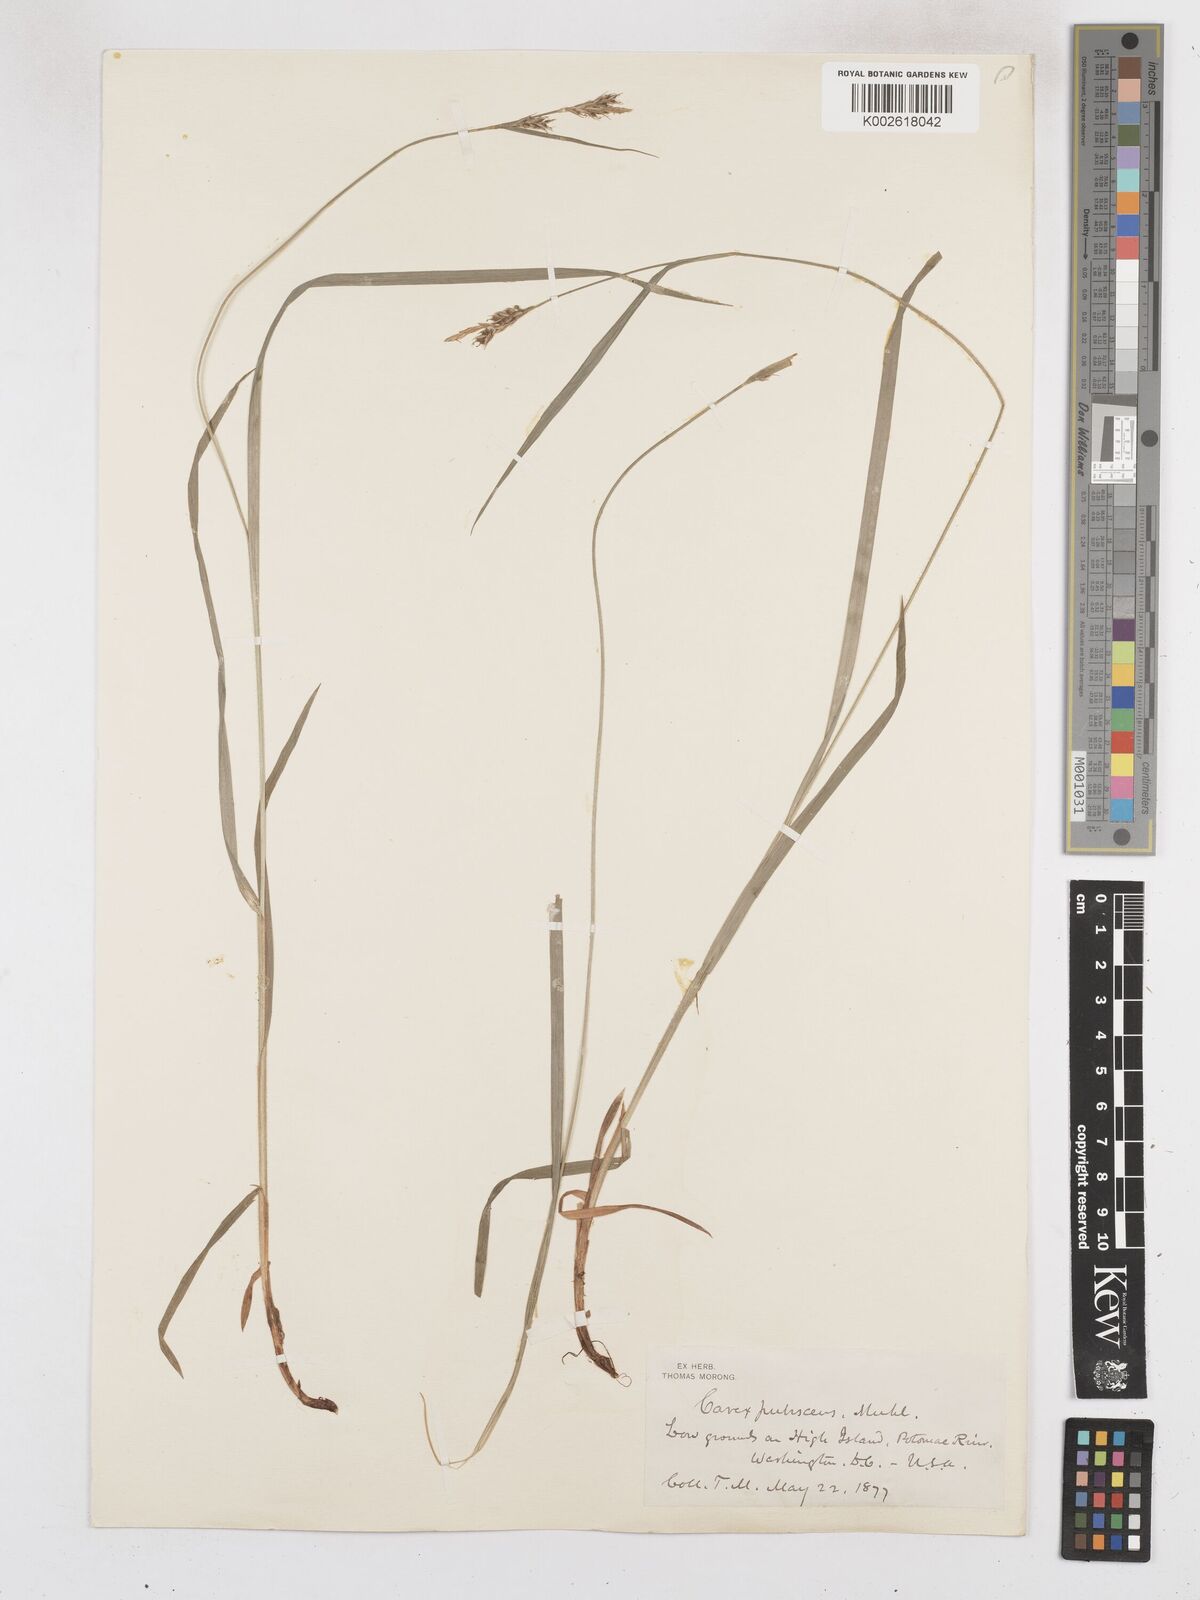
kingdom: Plantae
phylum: Tracheophyta
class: Liliopsida
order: Poales
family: Cyperaceae
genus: Carex
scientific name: Carex hirtifolia
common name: Hairy sedge
